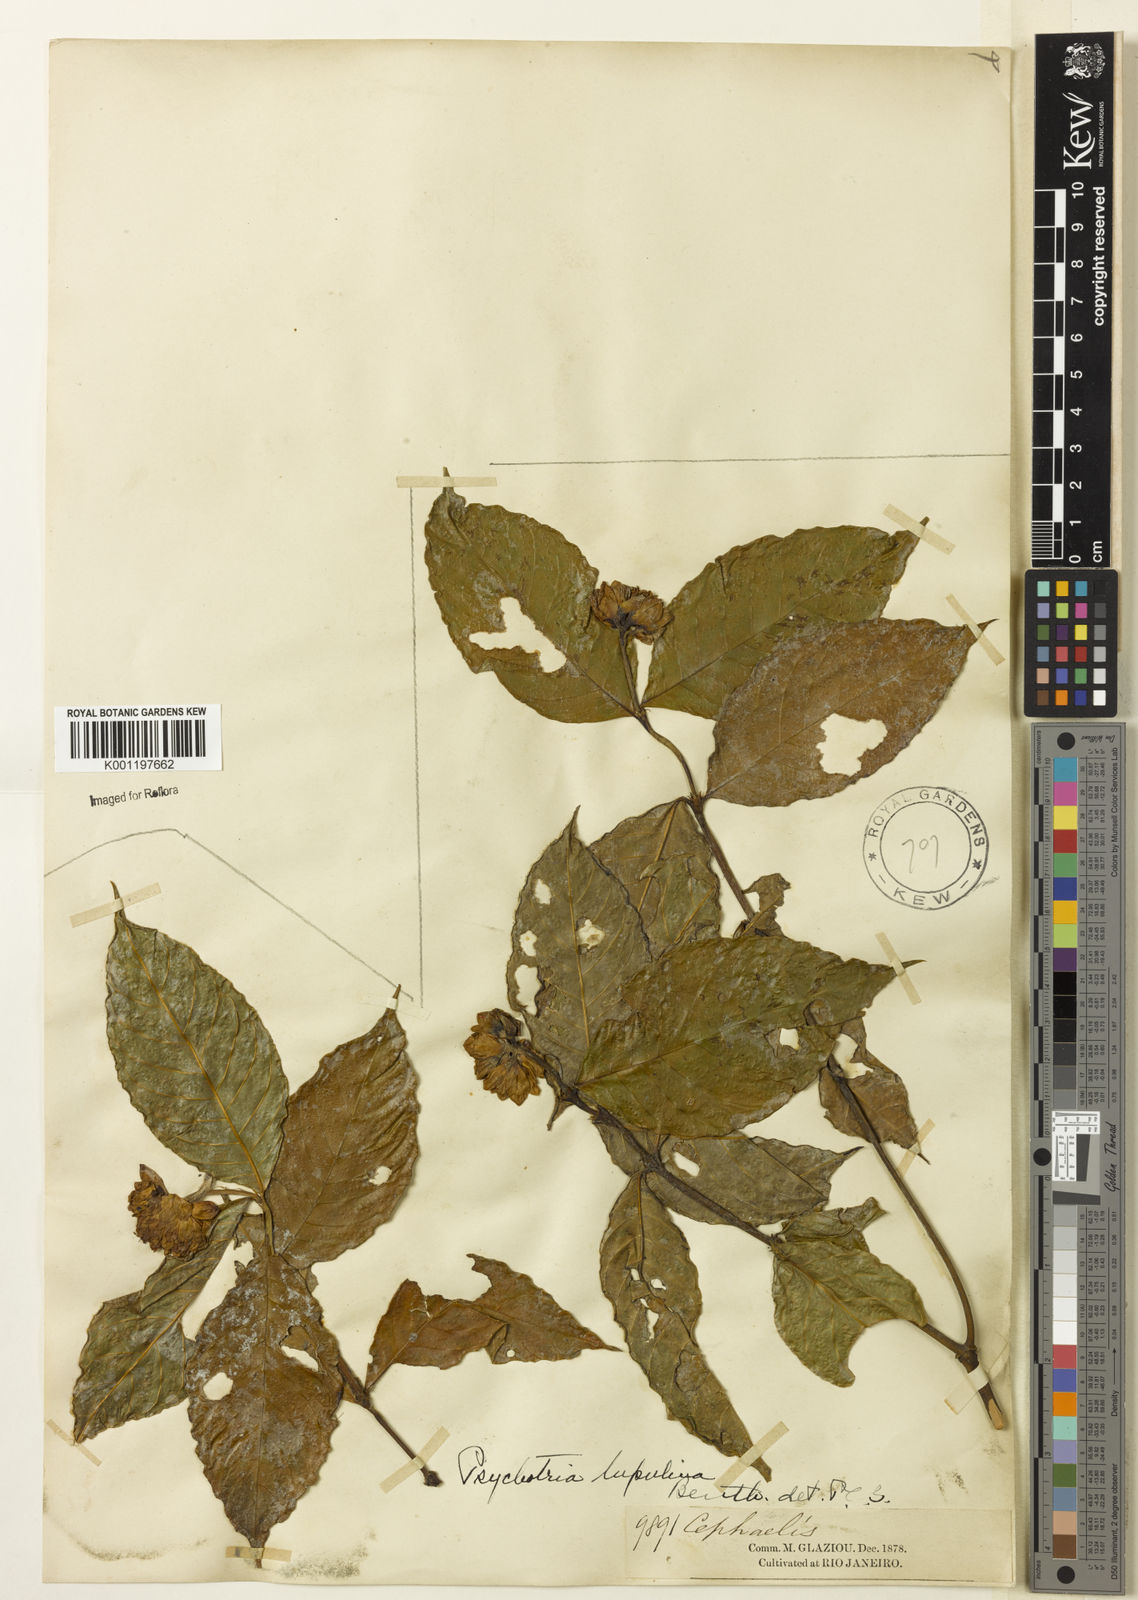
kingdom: Plantae
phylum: Tracheophyta
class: Magnoliopsida
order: Gentianales
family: Rubiaceae
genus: Palicourea
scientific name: Palicourea justiciifolia
